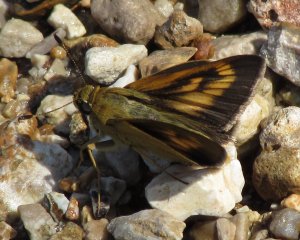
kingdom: Animalia
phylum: Arthropoda
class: Insecta
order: Lepidoptera
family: Hesperiidae
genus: Problema
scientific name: Problema byssus
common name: Byssus Skipper
